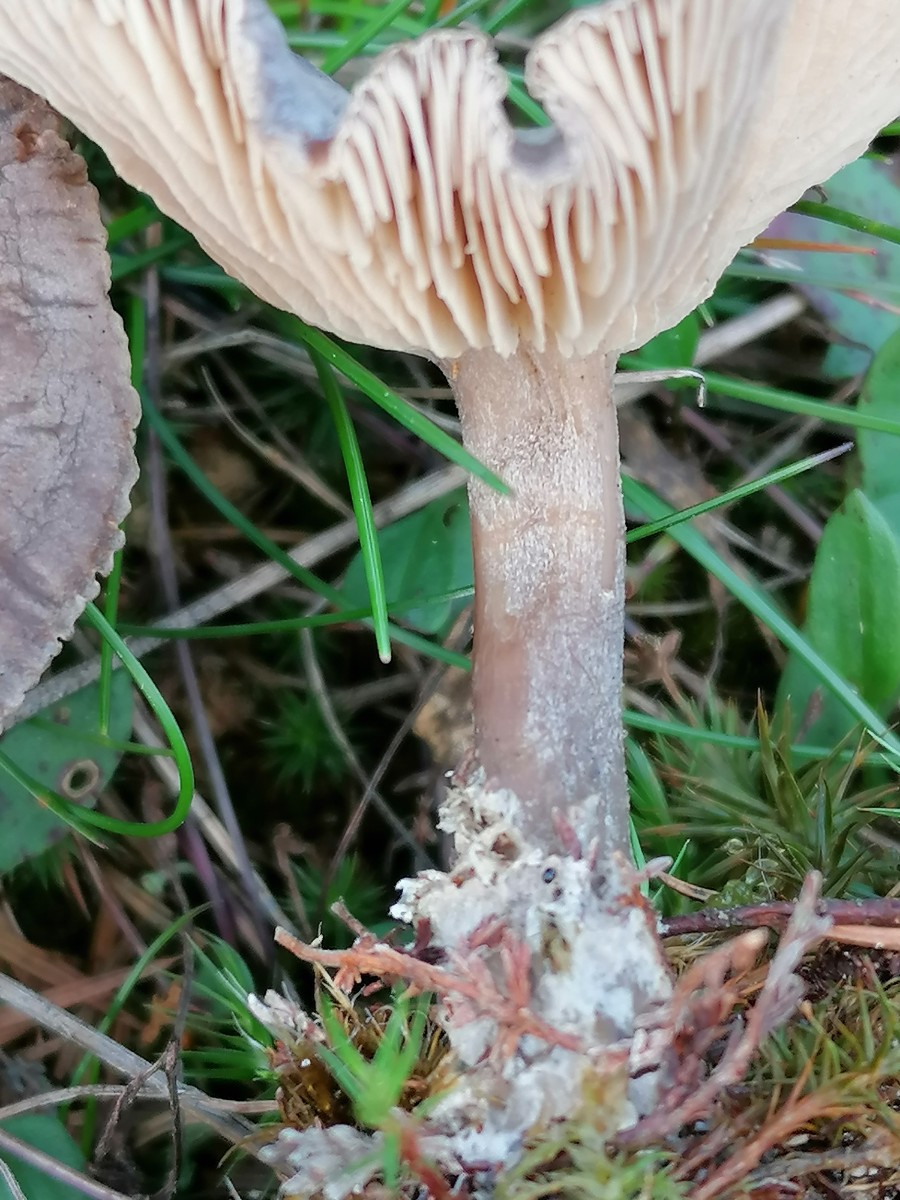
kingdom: Fungi
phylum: Basidiomycota
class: Agaricomycetes
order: Agaricales
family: Entolomataceae
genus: Rhodocybe
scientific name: Rhodocybe
